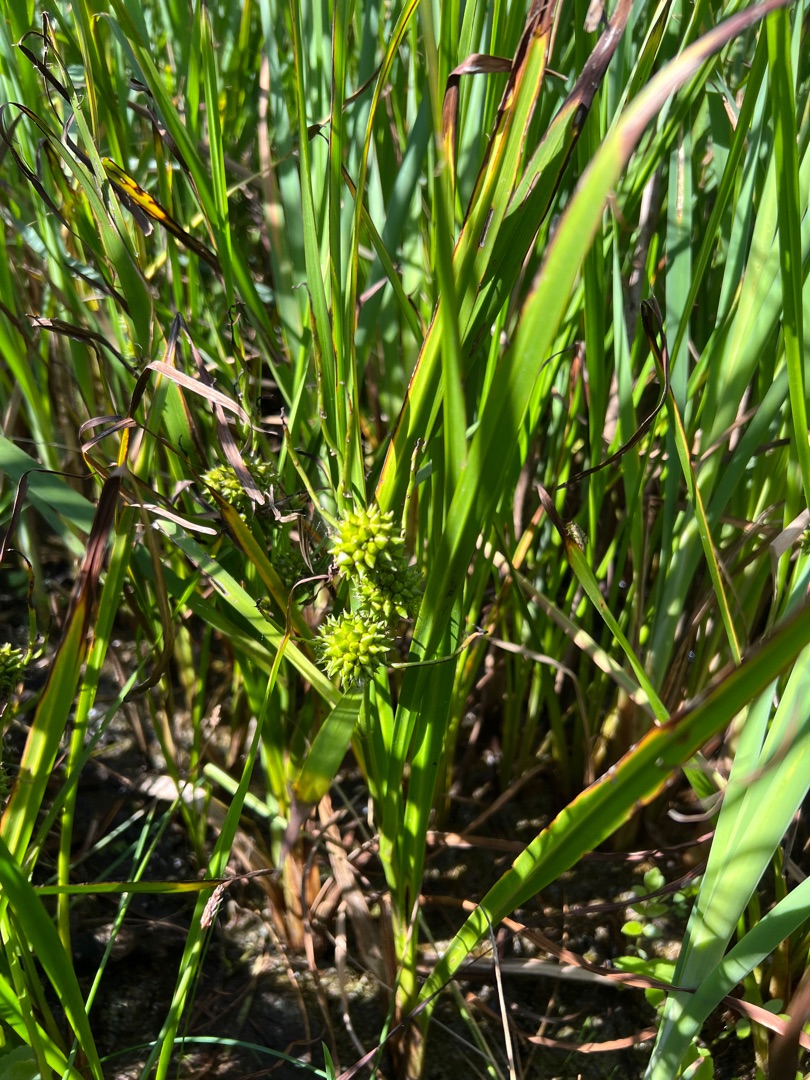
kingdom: Plantae
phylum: Tracheophyta
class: Liliopsida
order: Poales
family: Typhaceae
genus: Sparganium
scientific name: Sparganium erectum
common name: Grenet pindsvineknop
